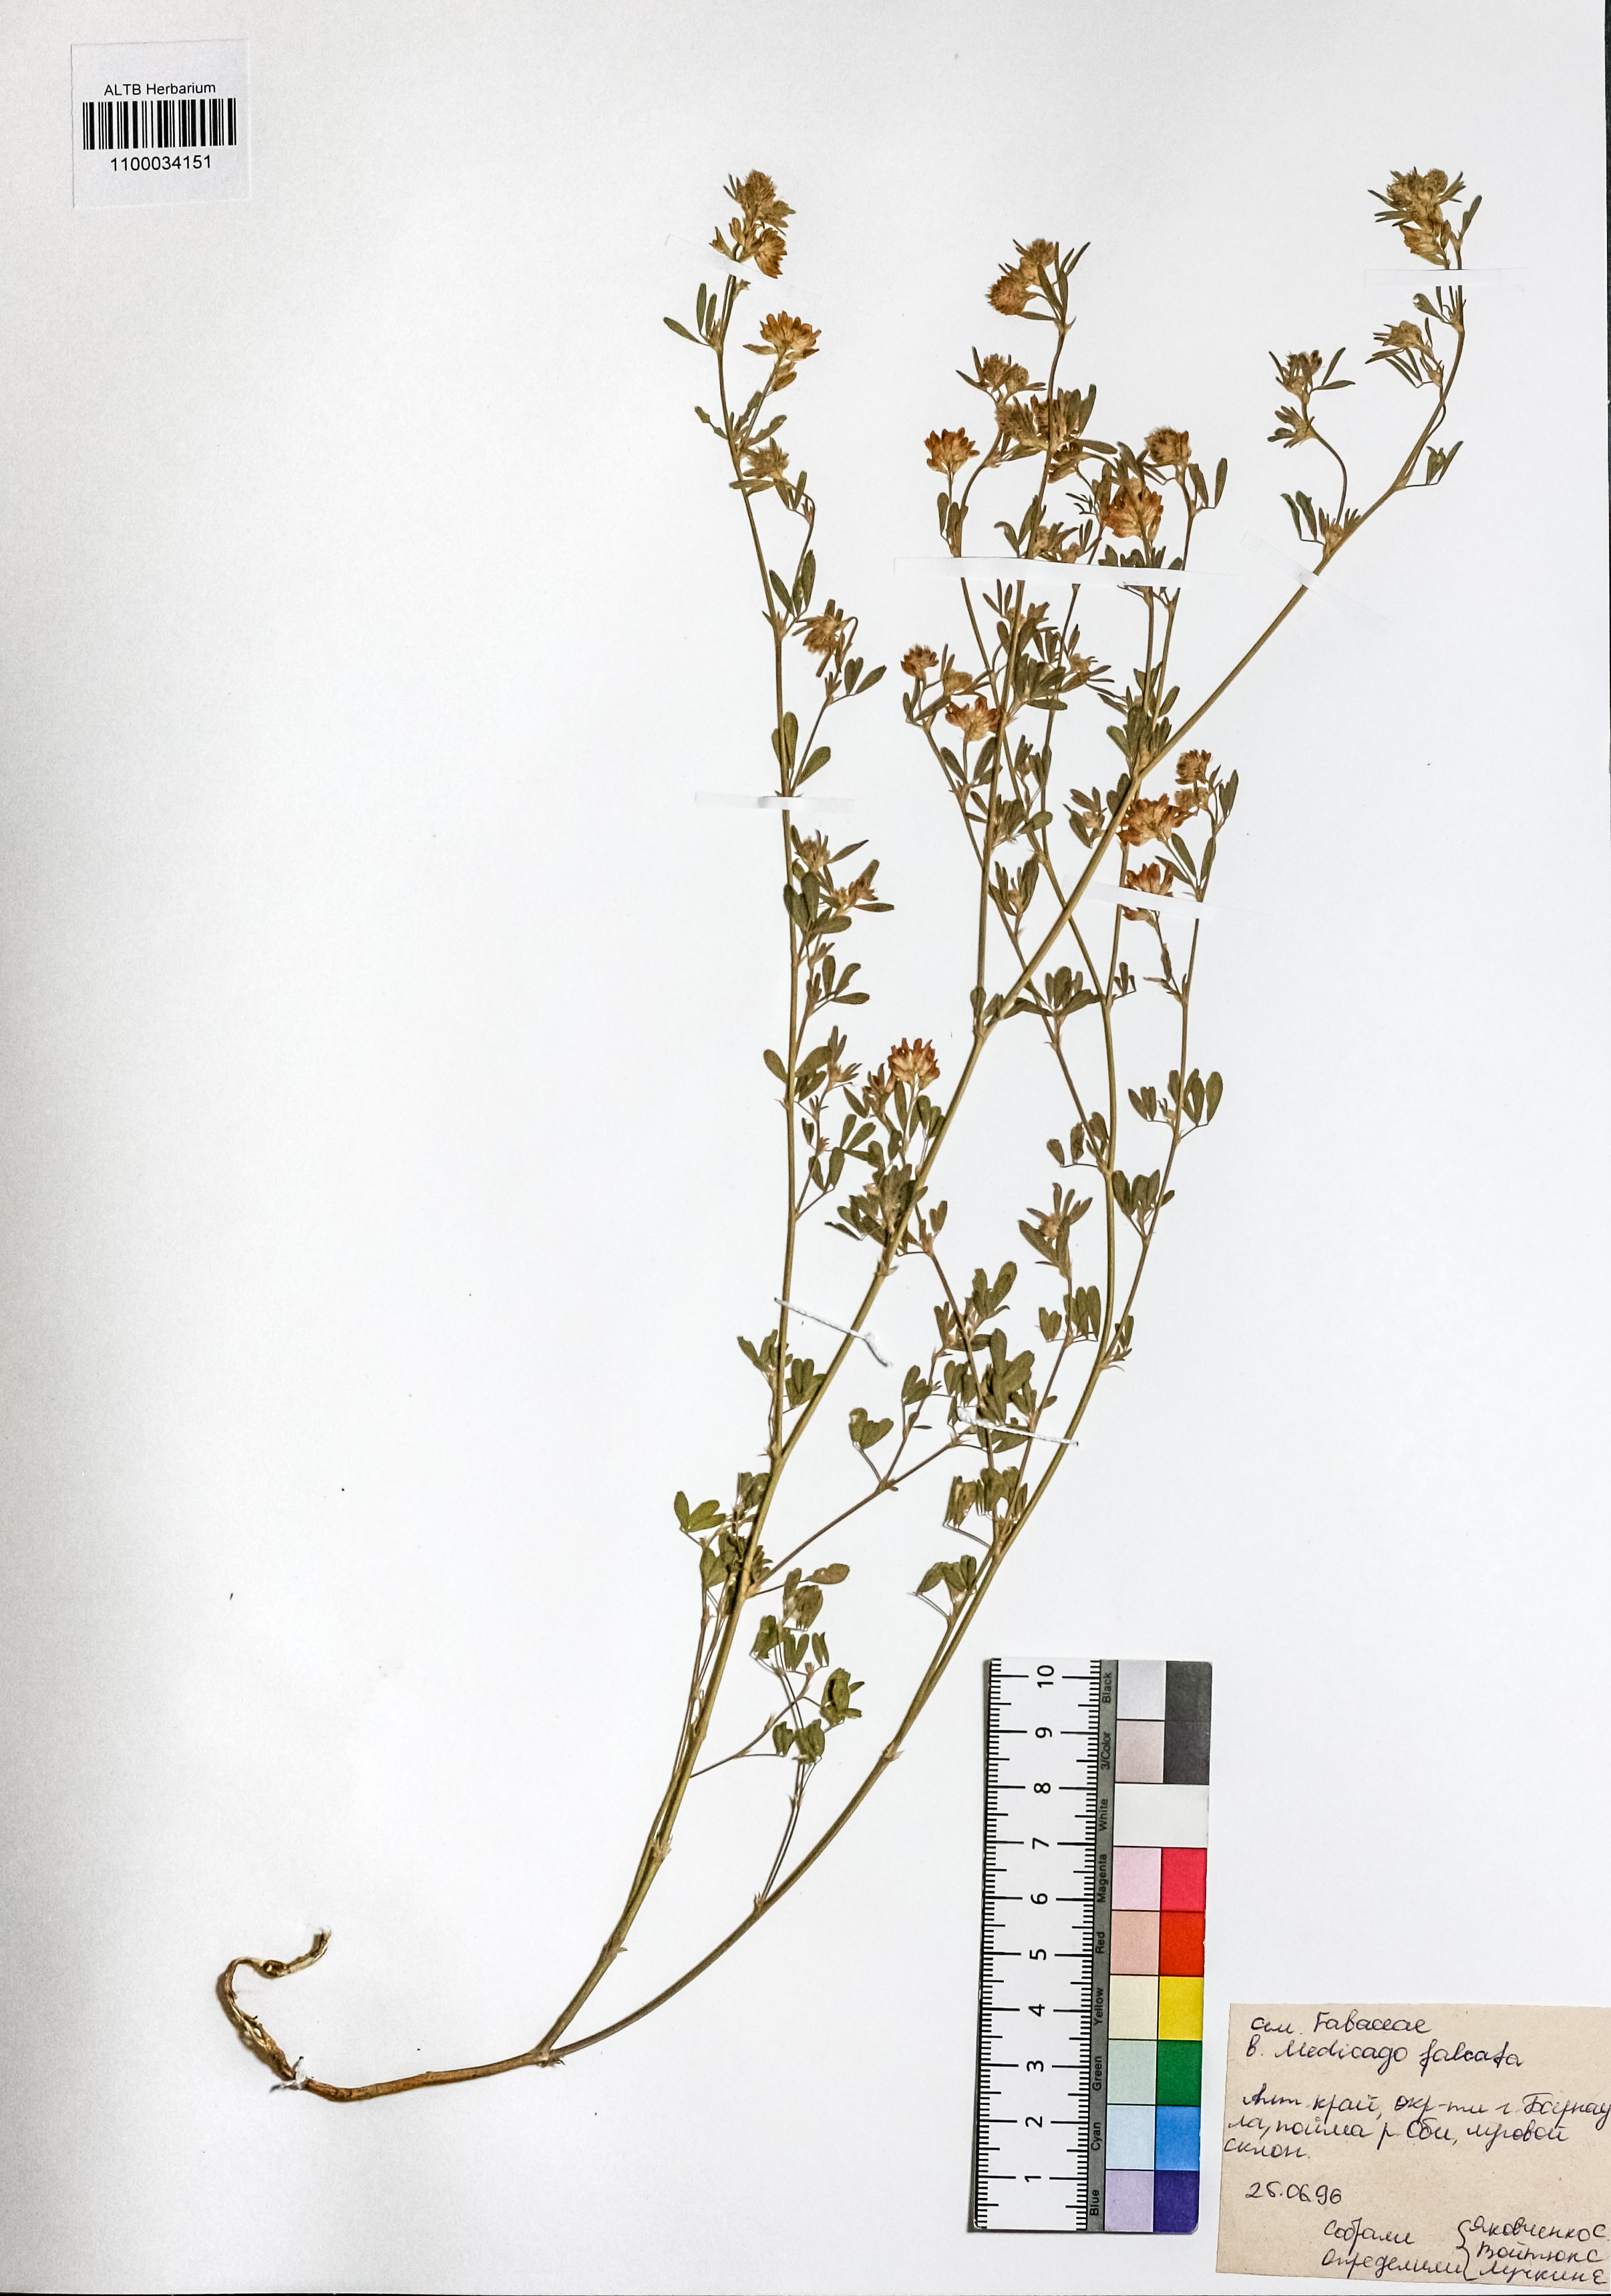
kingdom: Plantae
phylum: Tracheophyta
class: Magnoliopsida
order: Fabales
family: Fabaceae
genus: Medicago
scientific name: Medicago falcata
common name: Sickle medick
